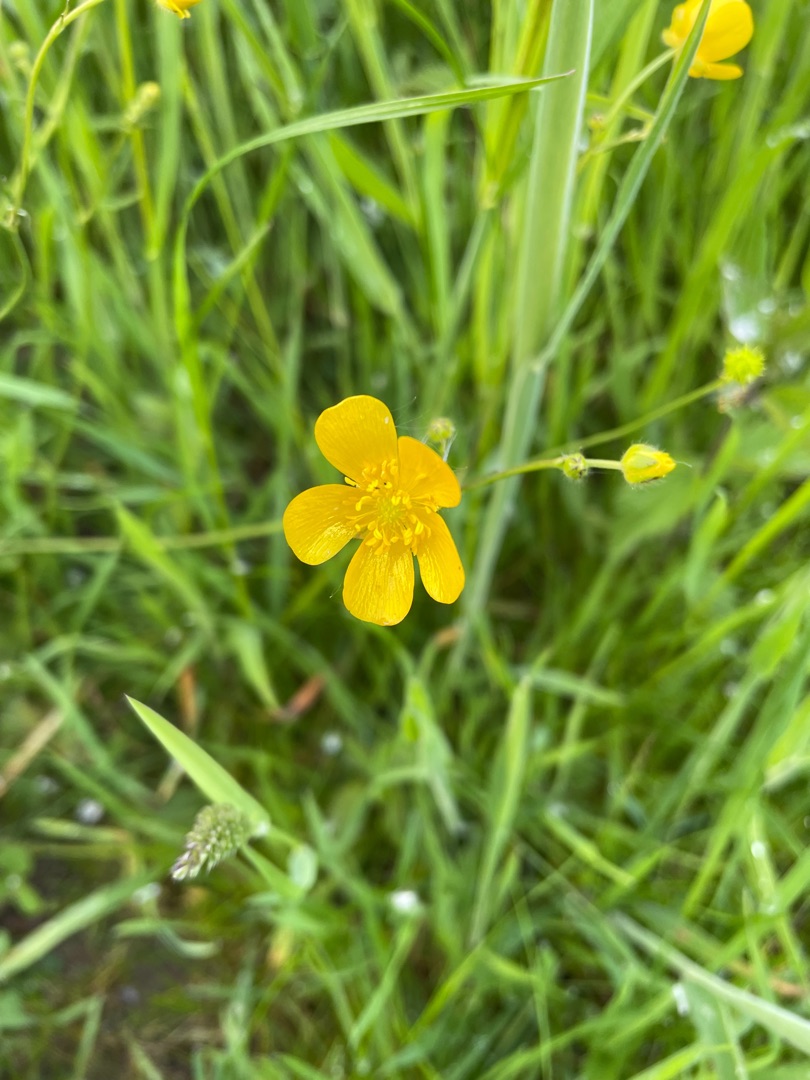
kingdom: Plantae
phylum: Tracheophyta
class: Magnoliopsida
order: Ranunculales
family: Ranunculaceae
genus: Ranunculus
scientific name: Ranunculus
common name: Ranunkelslægten
